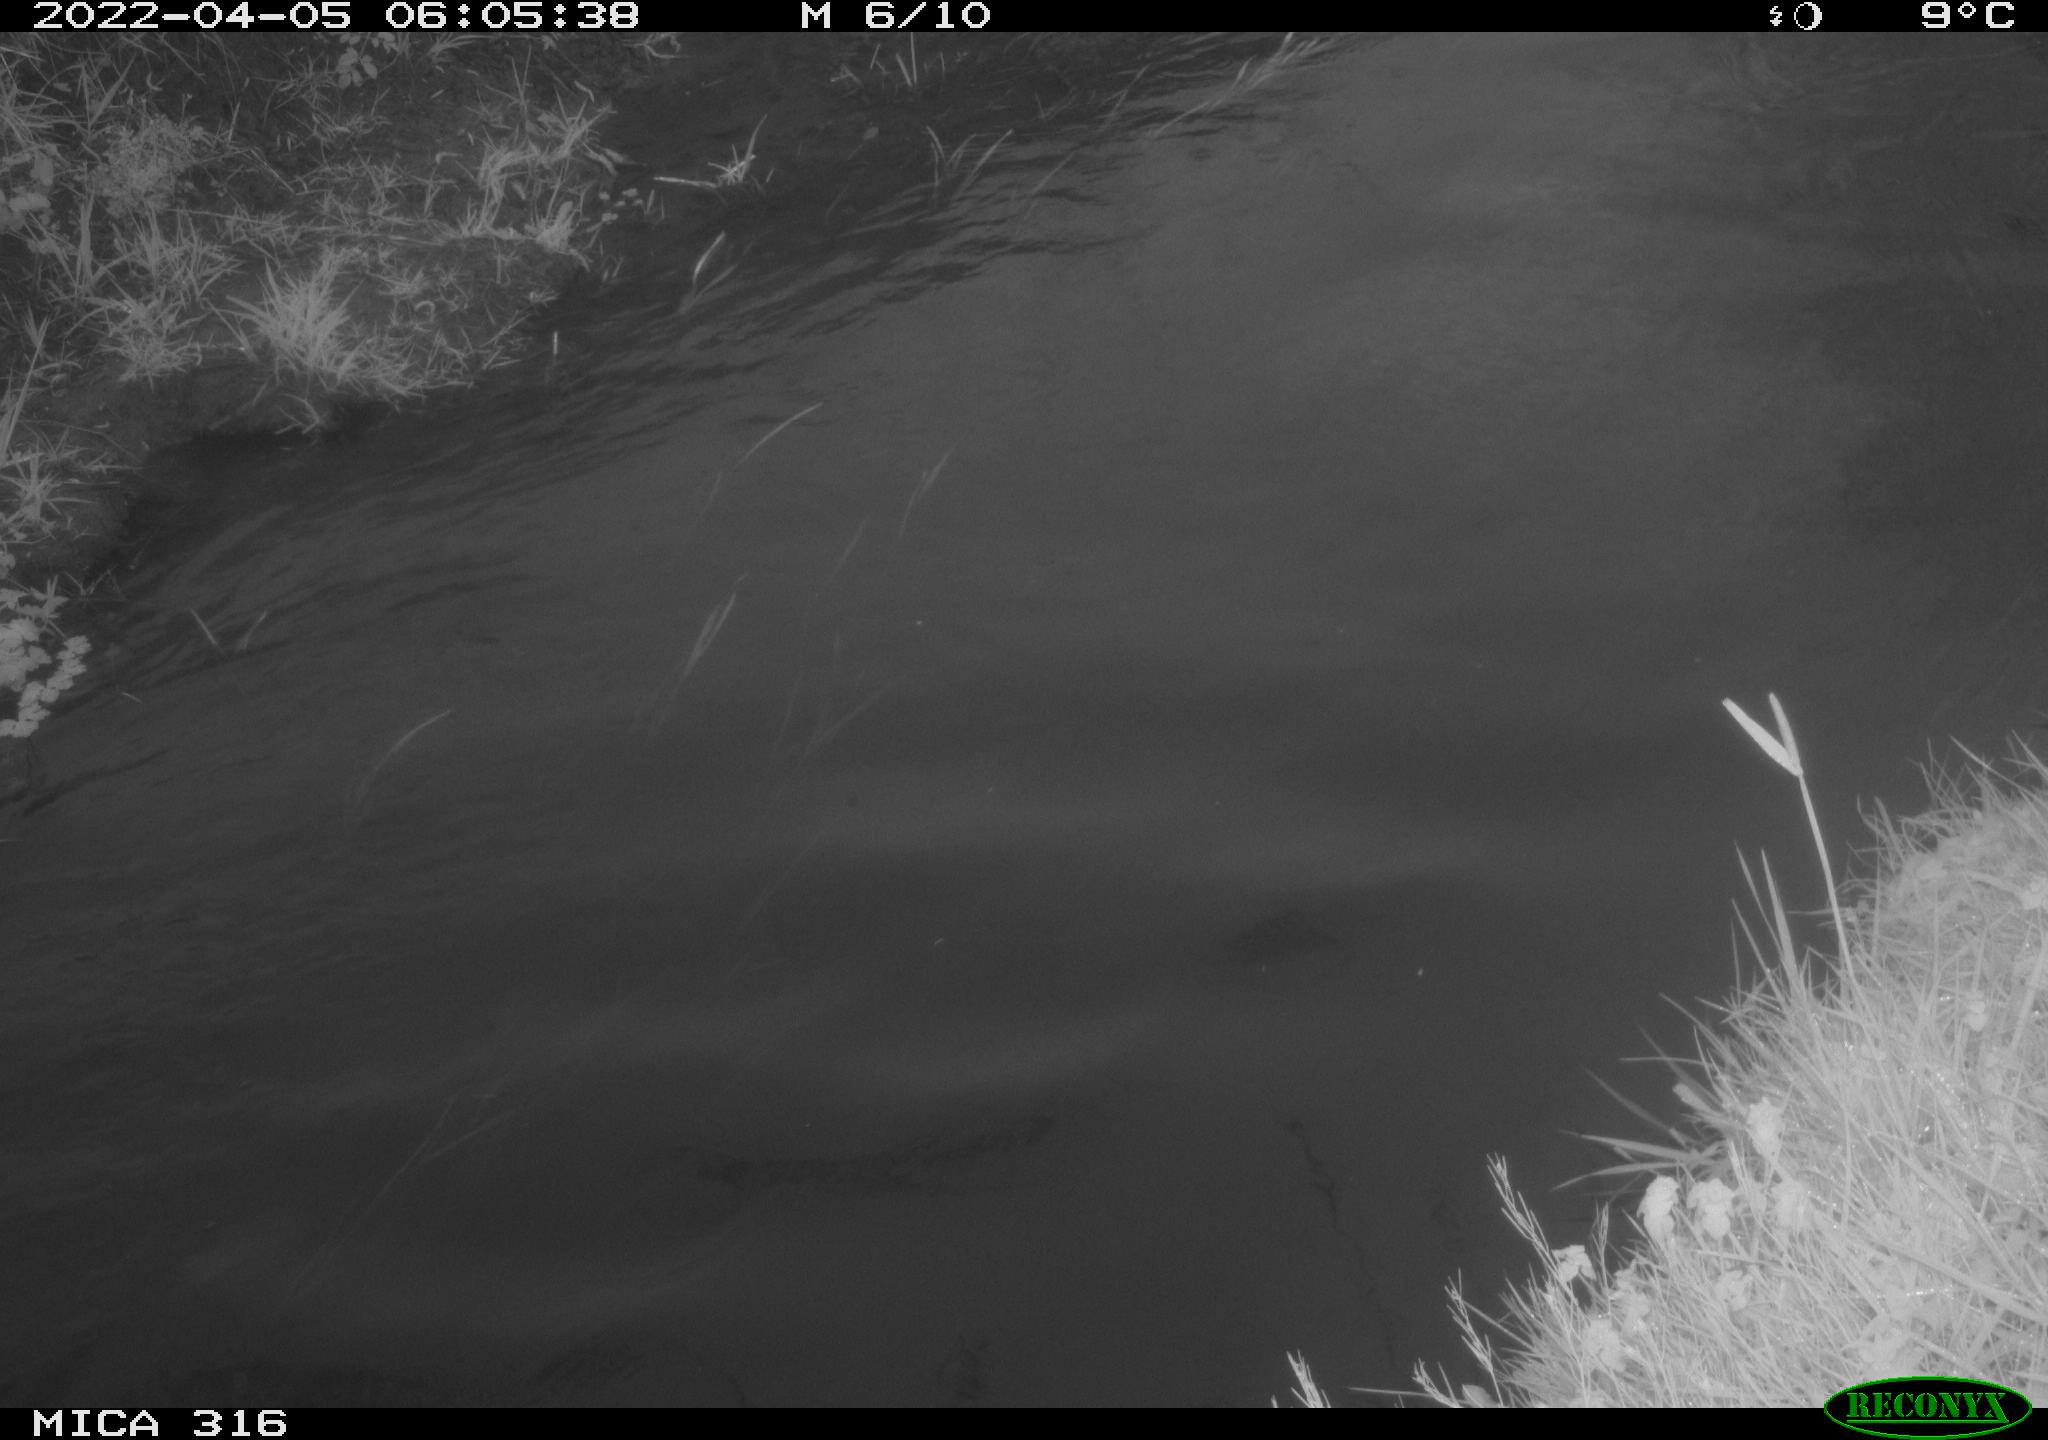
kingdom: Animalia
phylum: Chordata
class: Aves
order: Anseriformes
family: Anatidae
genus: Anas
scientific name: Anas platyrhynchos
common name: Mallard
